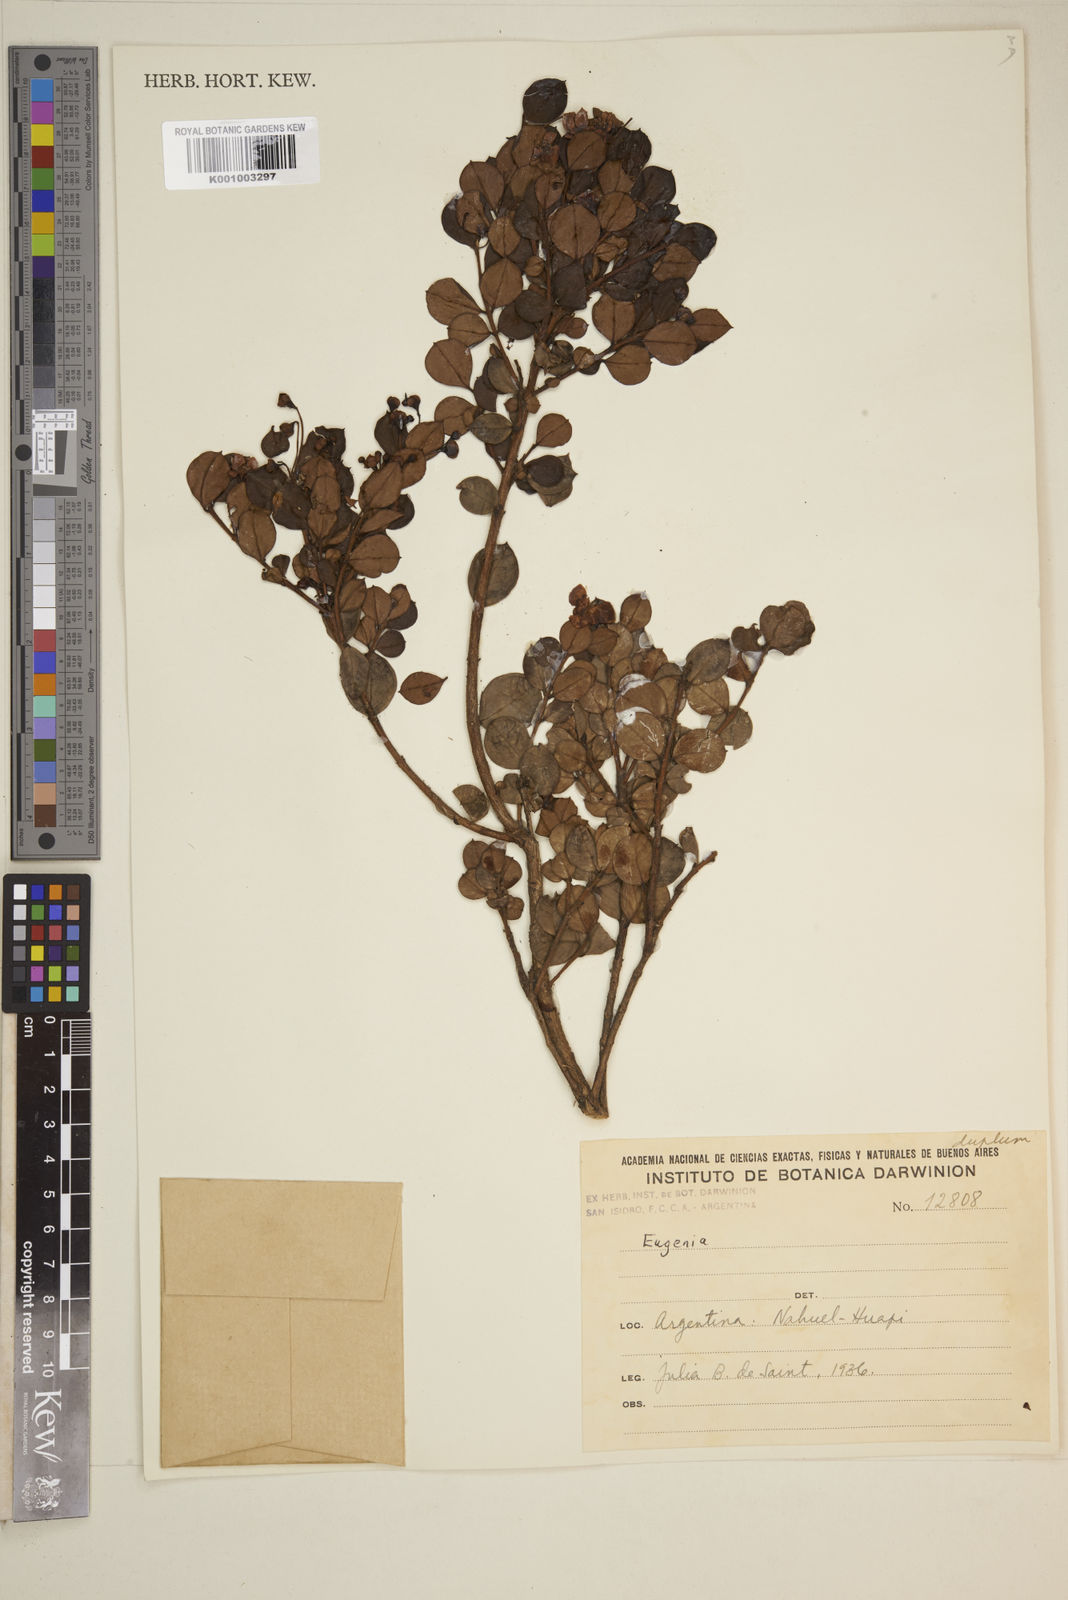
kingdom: Plantae
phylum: Tracheophyta
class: Magnoliopsida
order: Myrtales
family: Myrtaceae
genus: Eugenia
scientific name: Eugenia
